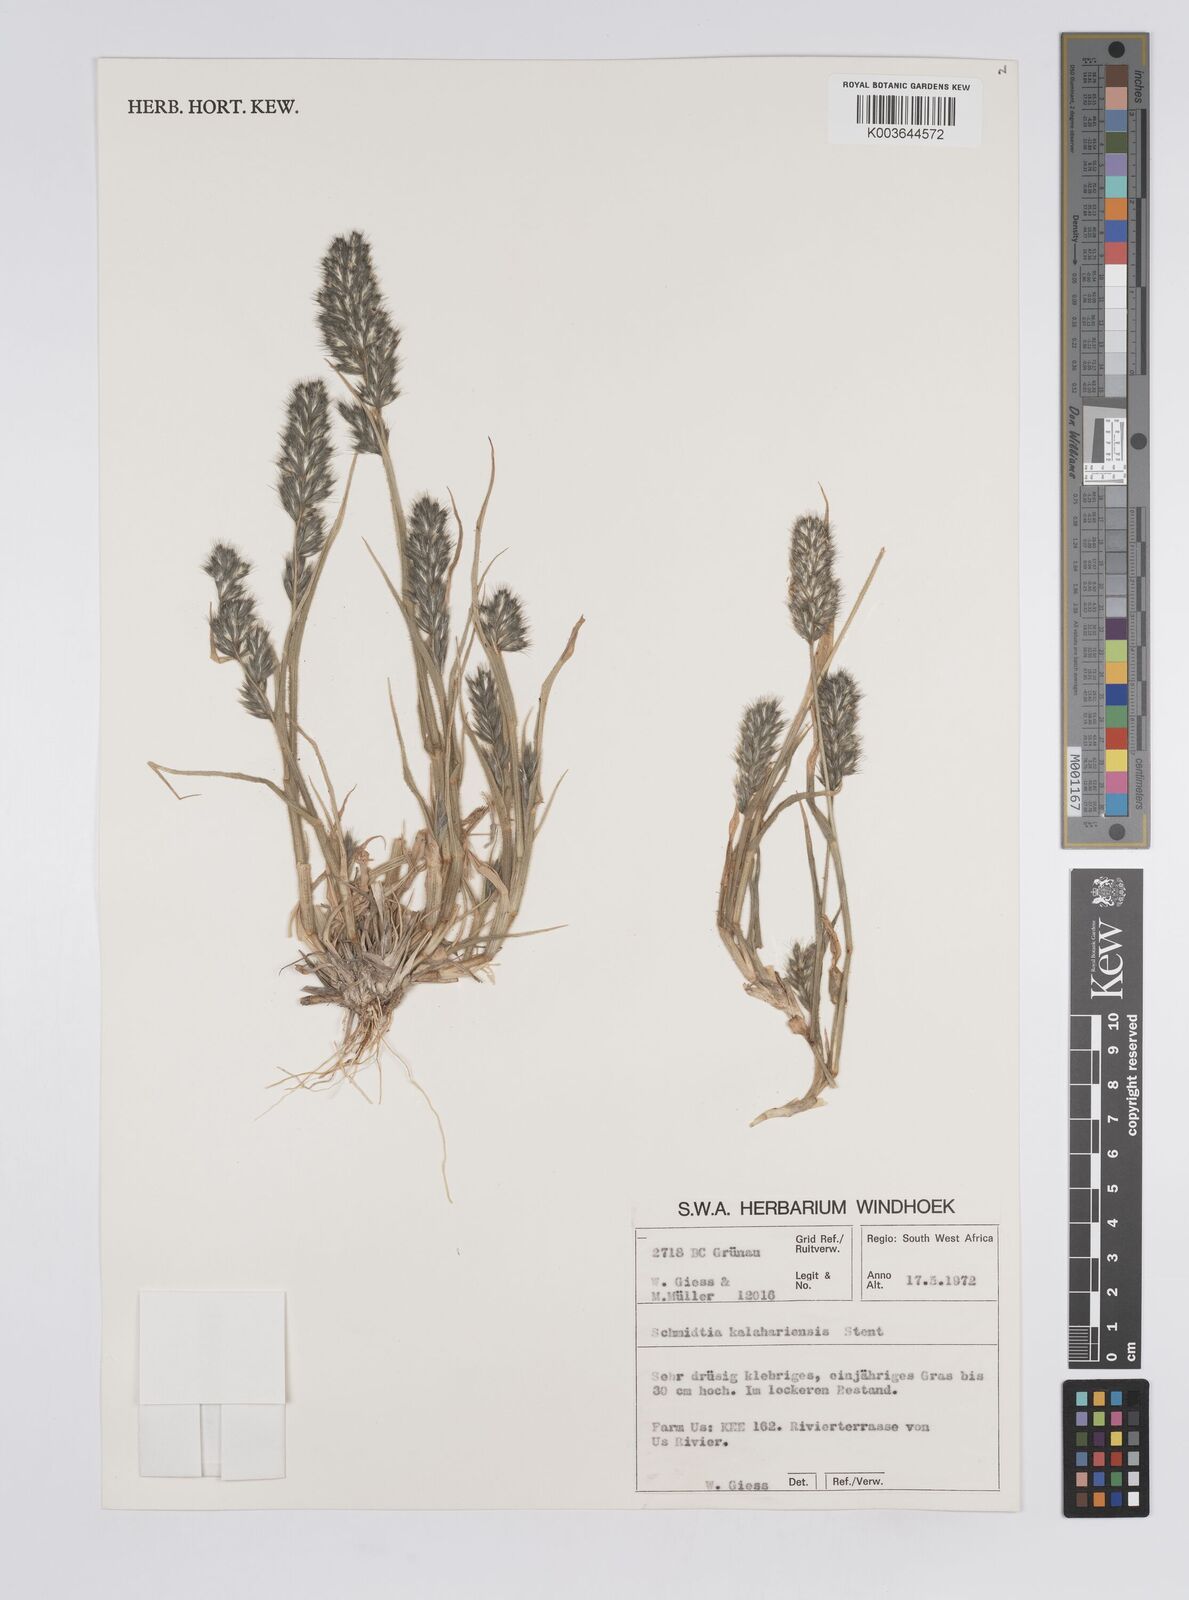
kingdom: Plantae
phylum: Tracheophyta
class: Liliopsida
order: Poales
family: Poaceae
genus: Schmidtia
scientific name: Schmidtia kalahariensis
